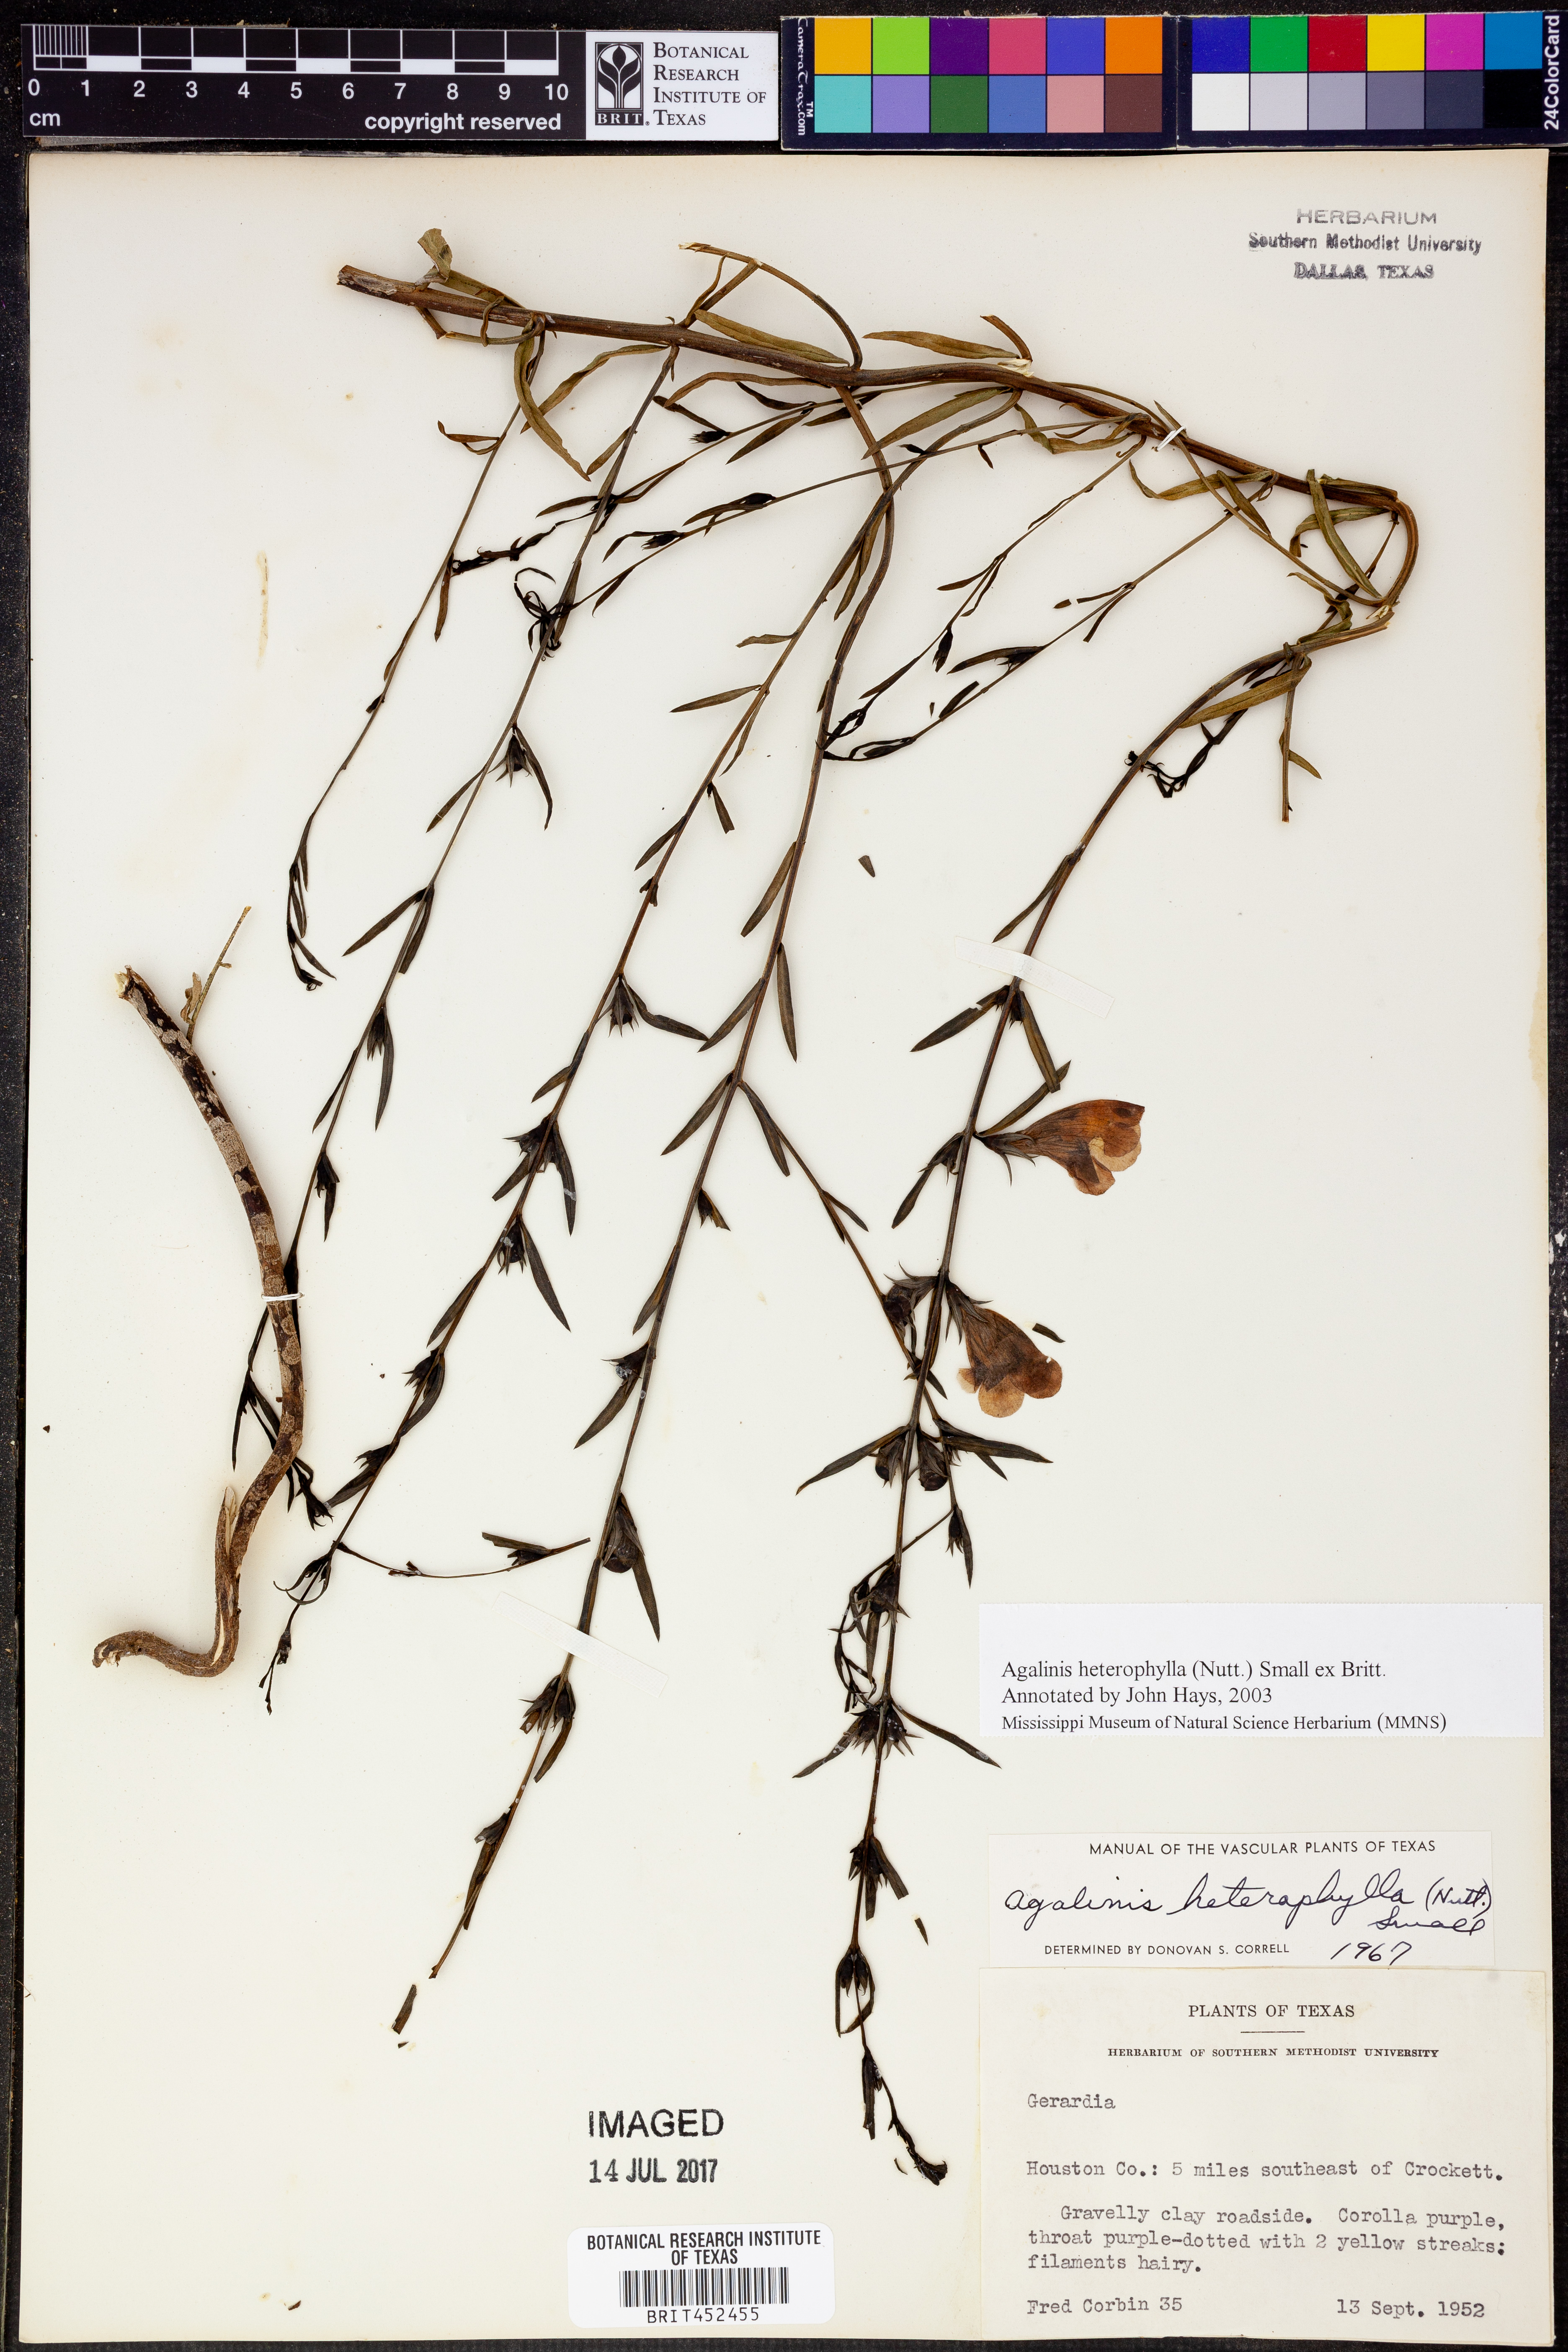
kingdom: Plantae
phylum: Tracheophyta
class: Magnoliopsida
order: Lamiales
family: Orobanchaceae
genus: Agalinis
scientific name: Agalinis heterophylla
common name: Prairie agalinis
